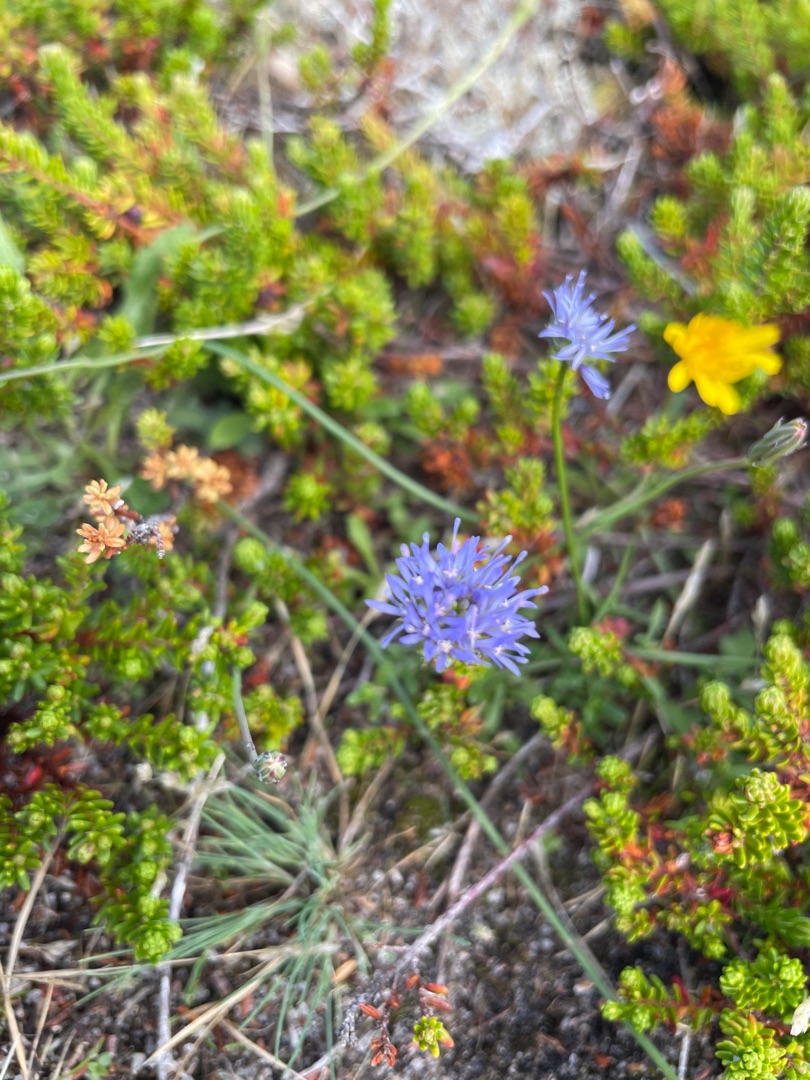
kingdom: Plantae
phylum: Tracheophyta
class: Magnoliopsida
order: Asterales
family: Campanulaceae
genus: Jasione
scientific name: Jasione montana
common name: Blåmunke
